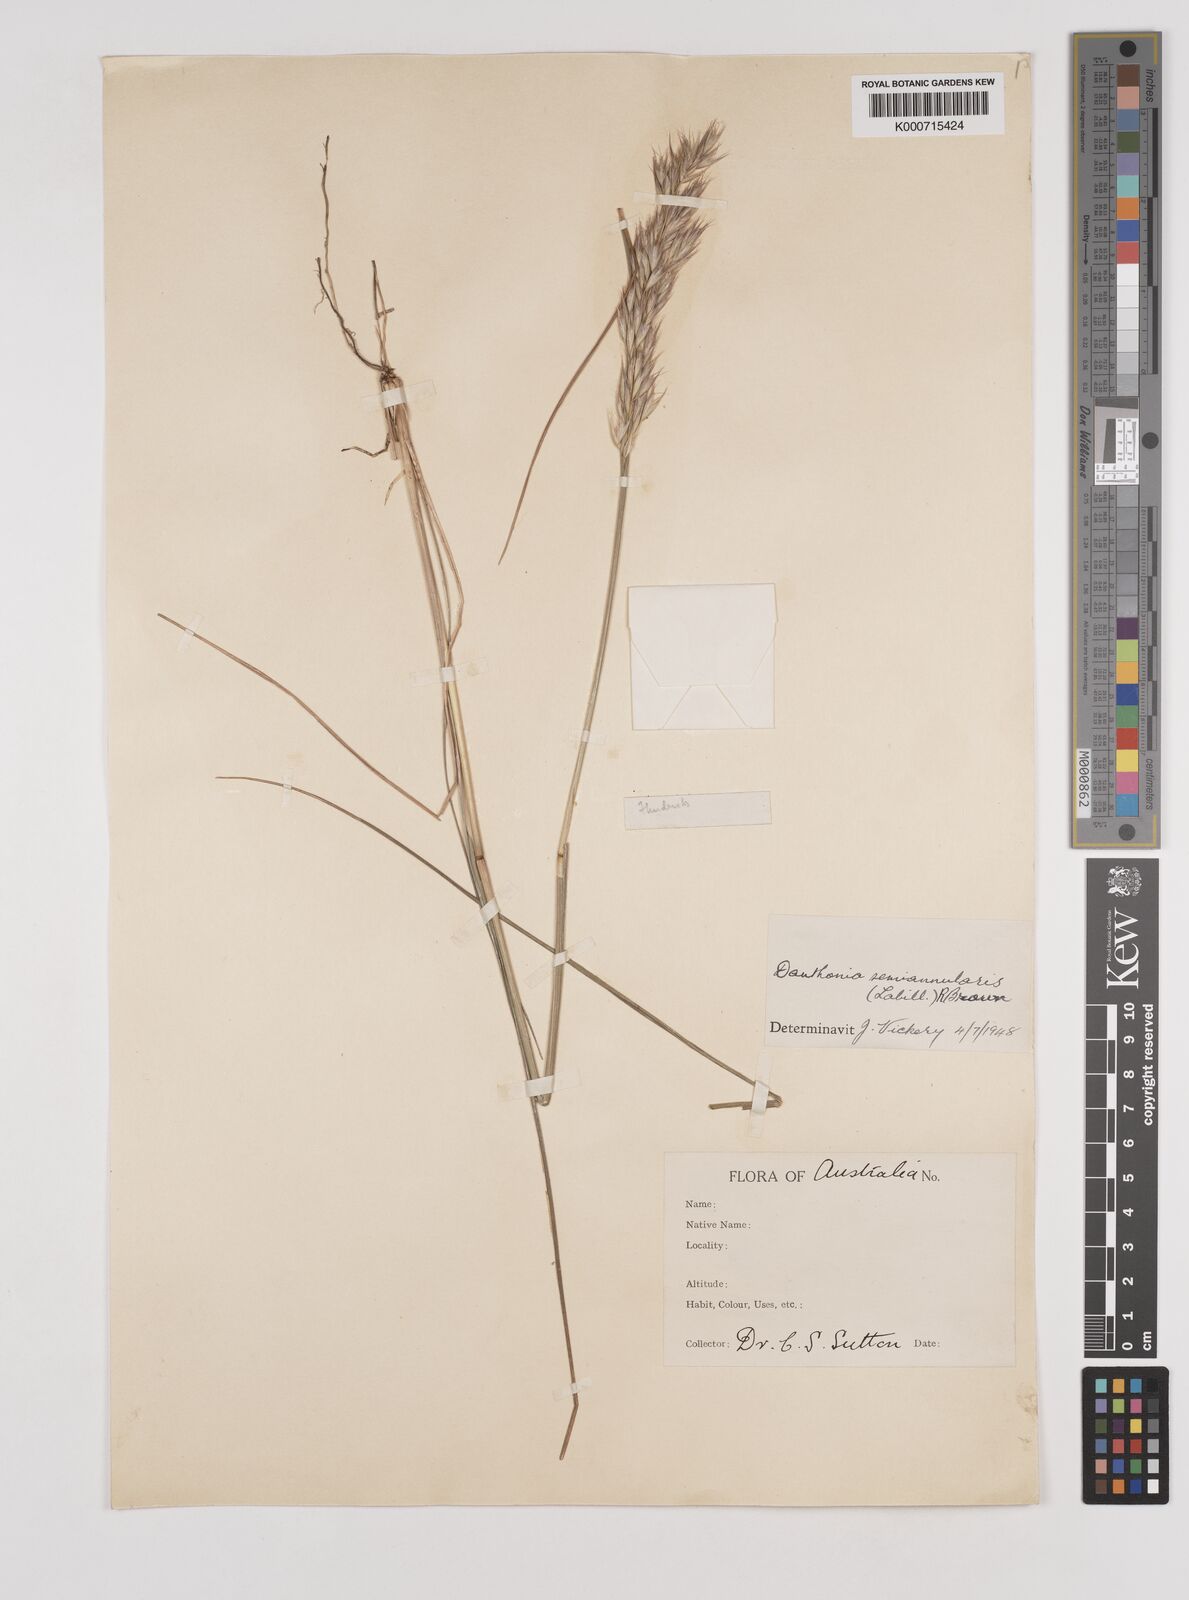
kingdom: Plantae
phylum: Tracheophyta
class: Liliopsida
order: Poales
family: Poaceae
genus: Rytidosperma
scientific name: Rytidosperma semiannulare
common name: Tasmanian wallaby grass
